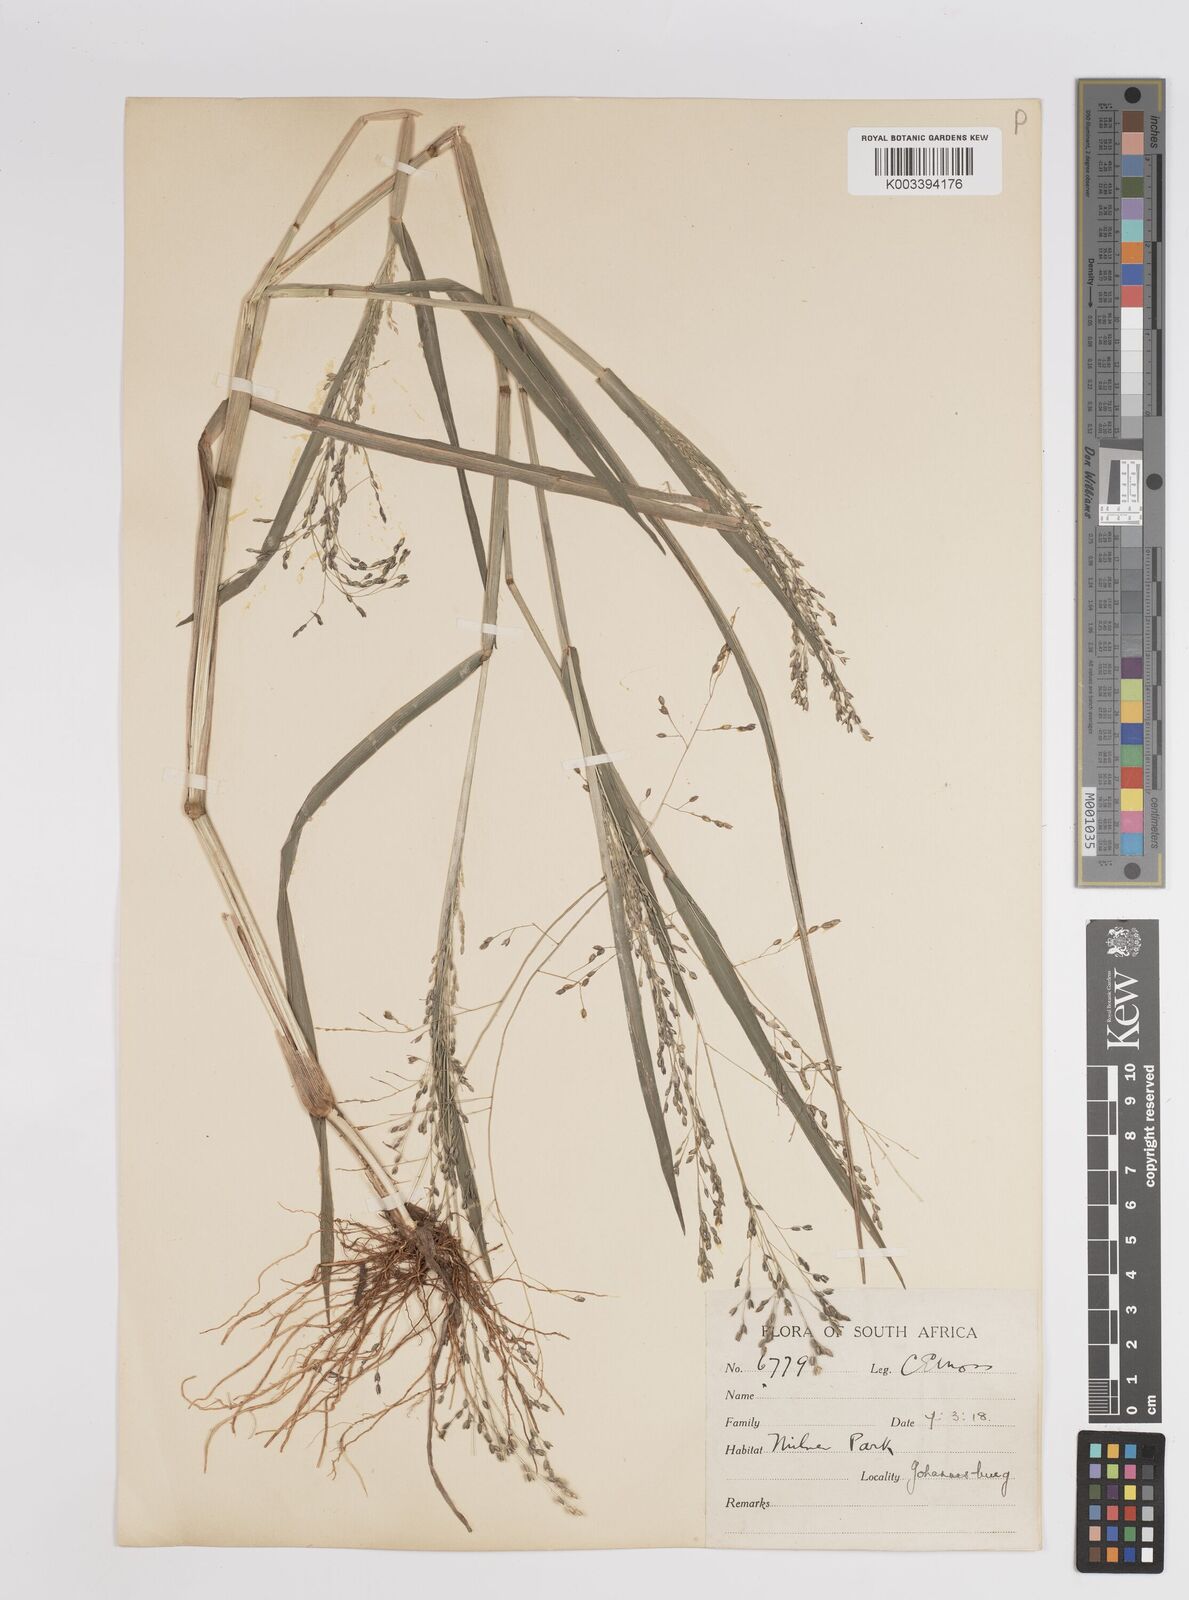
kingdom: Plantae
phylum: Tracheophyta
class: Liliopsida
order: Poales
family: Poaceae
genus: Panicum
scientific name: Panicum schinzii
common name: Sweet grass
